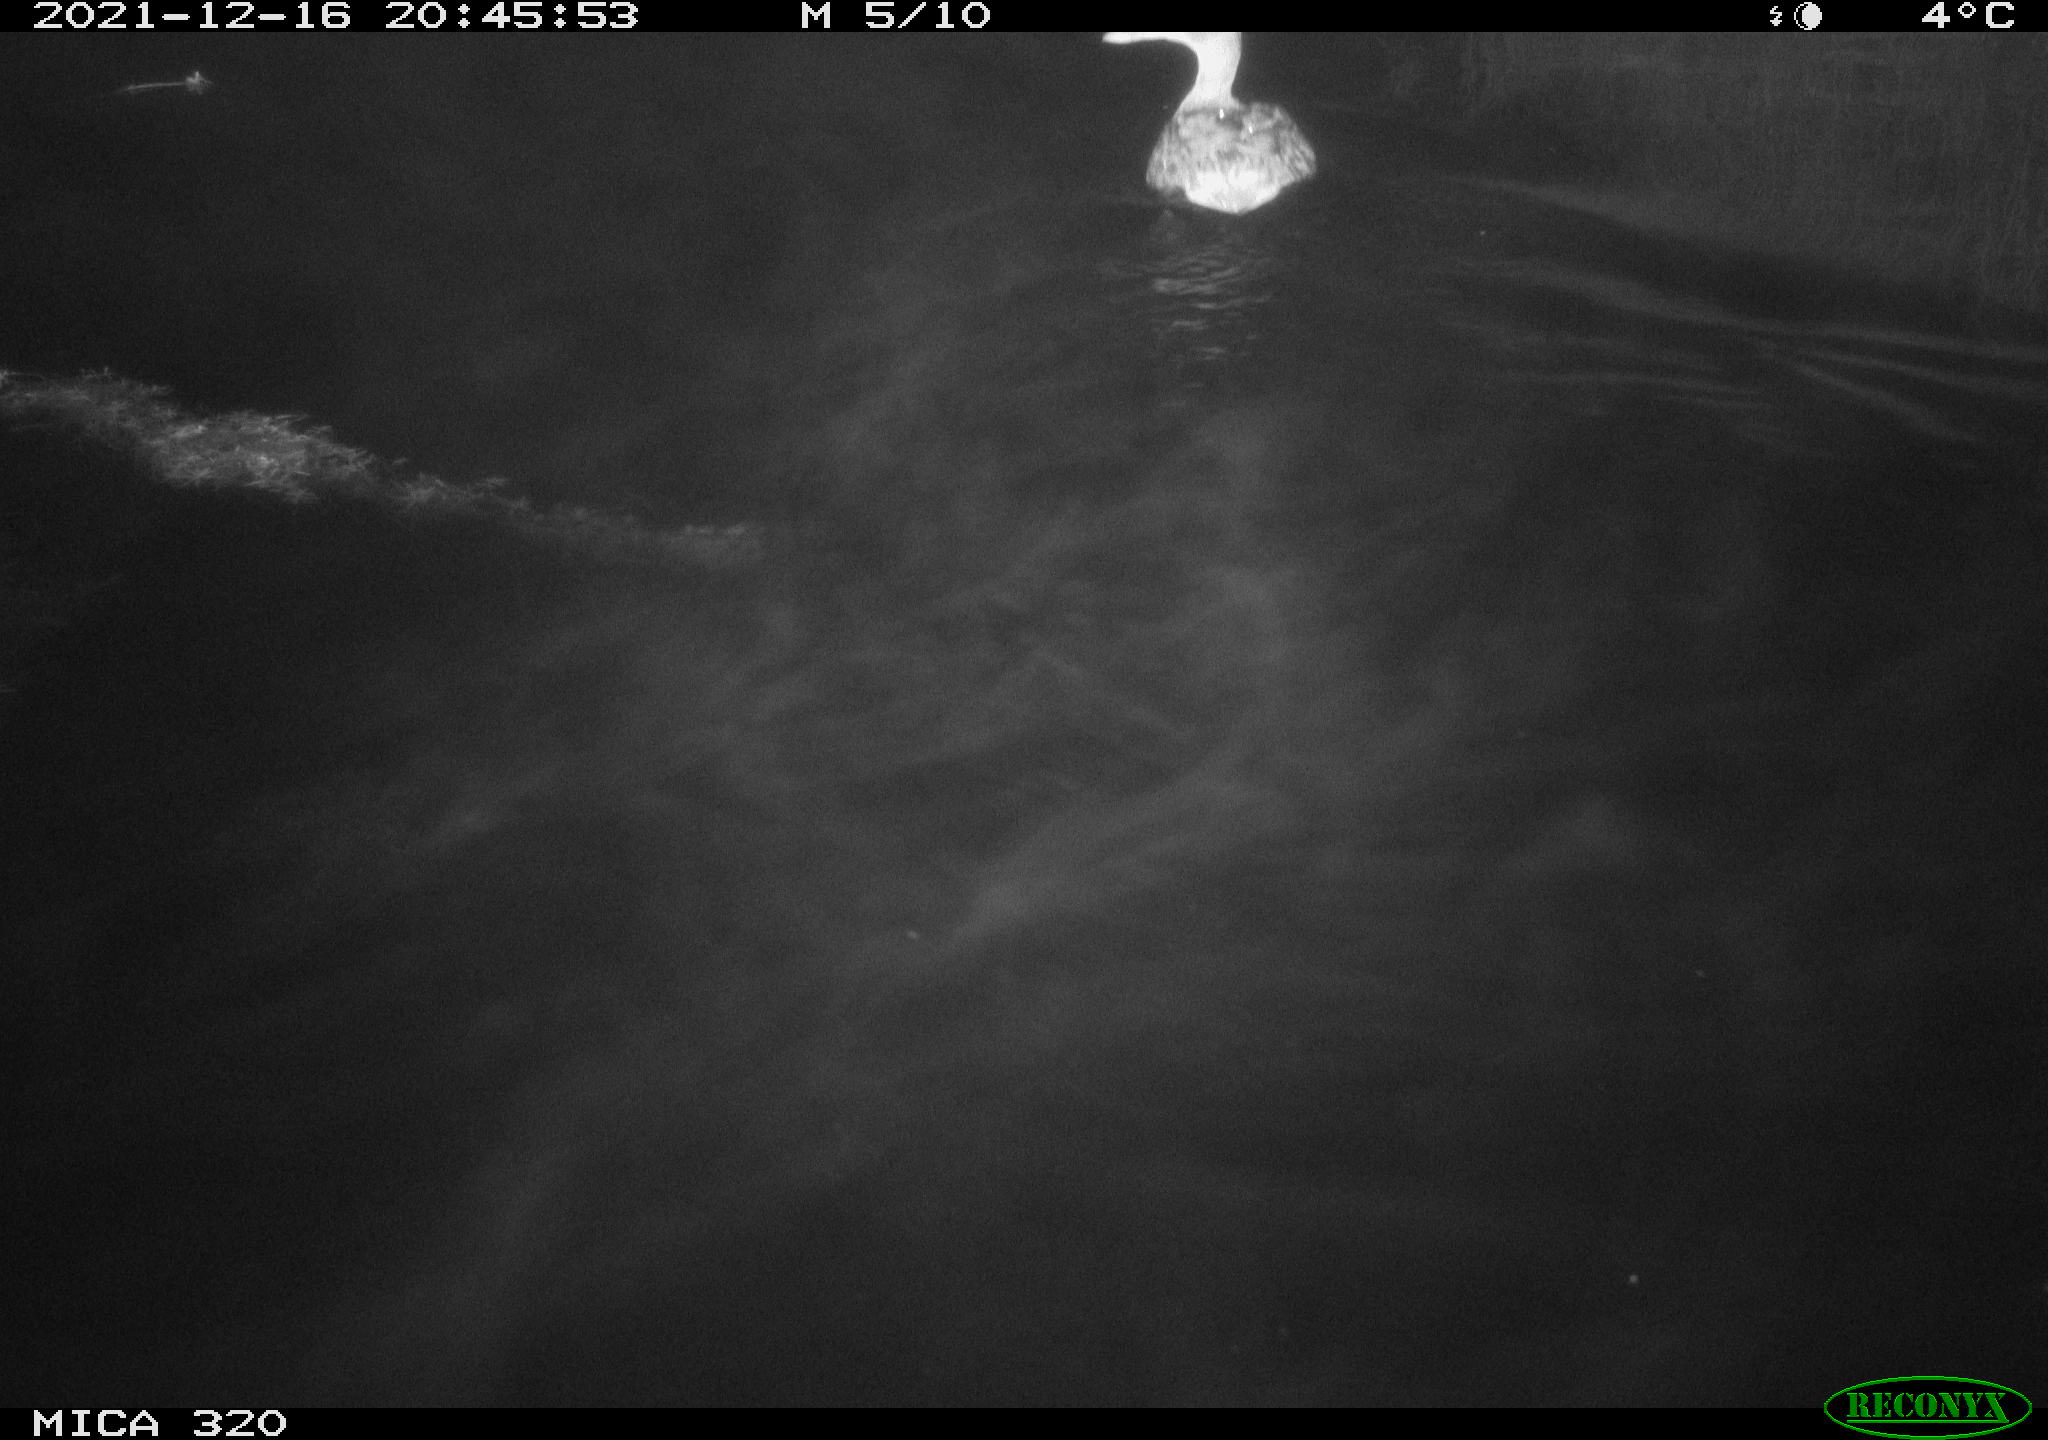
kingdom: Animalia
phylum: Chordata
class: Aves
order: Anseriformes
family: Anatidae
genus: Anas
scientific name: Anas platyrhynchos
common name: Mallard
